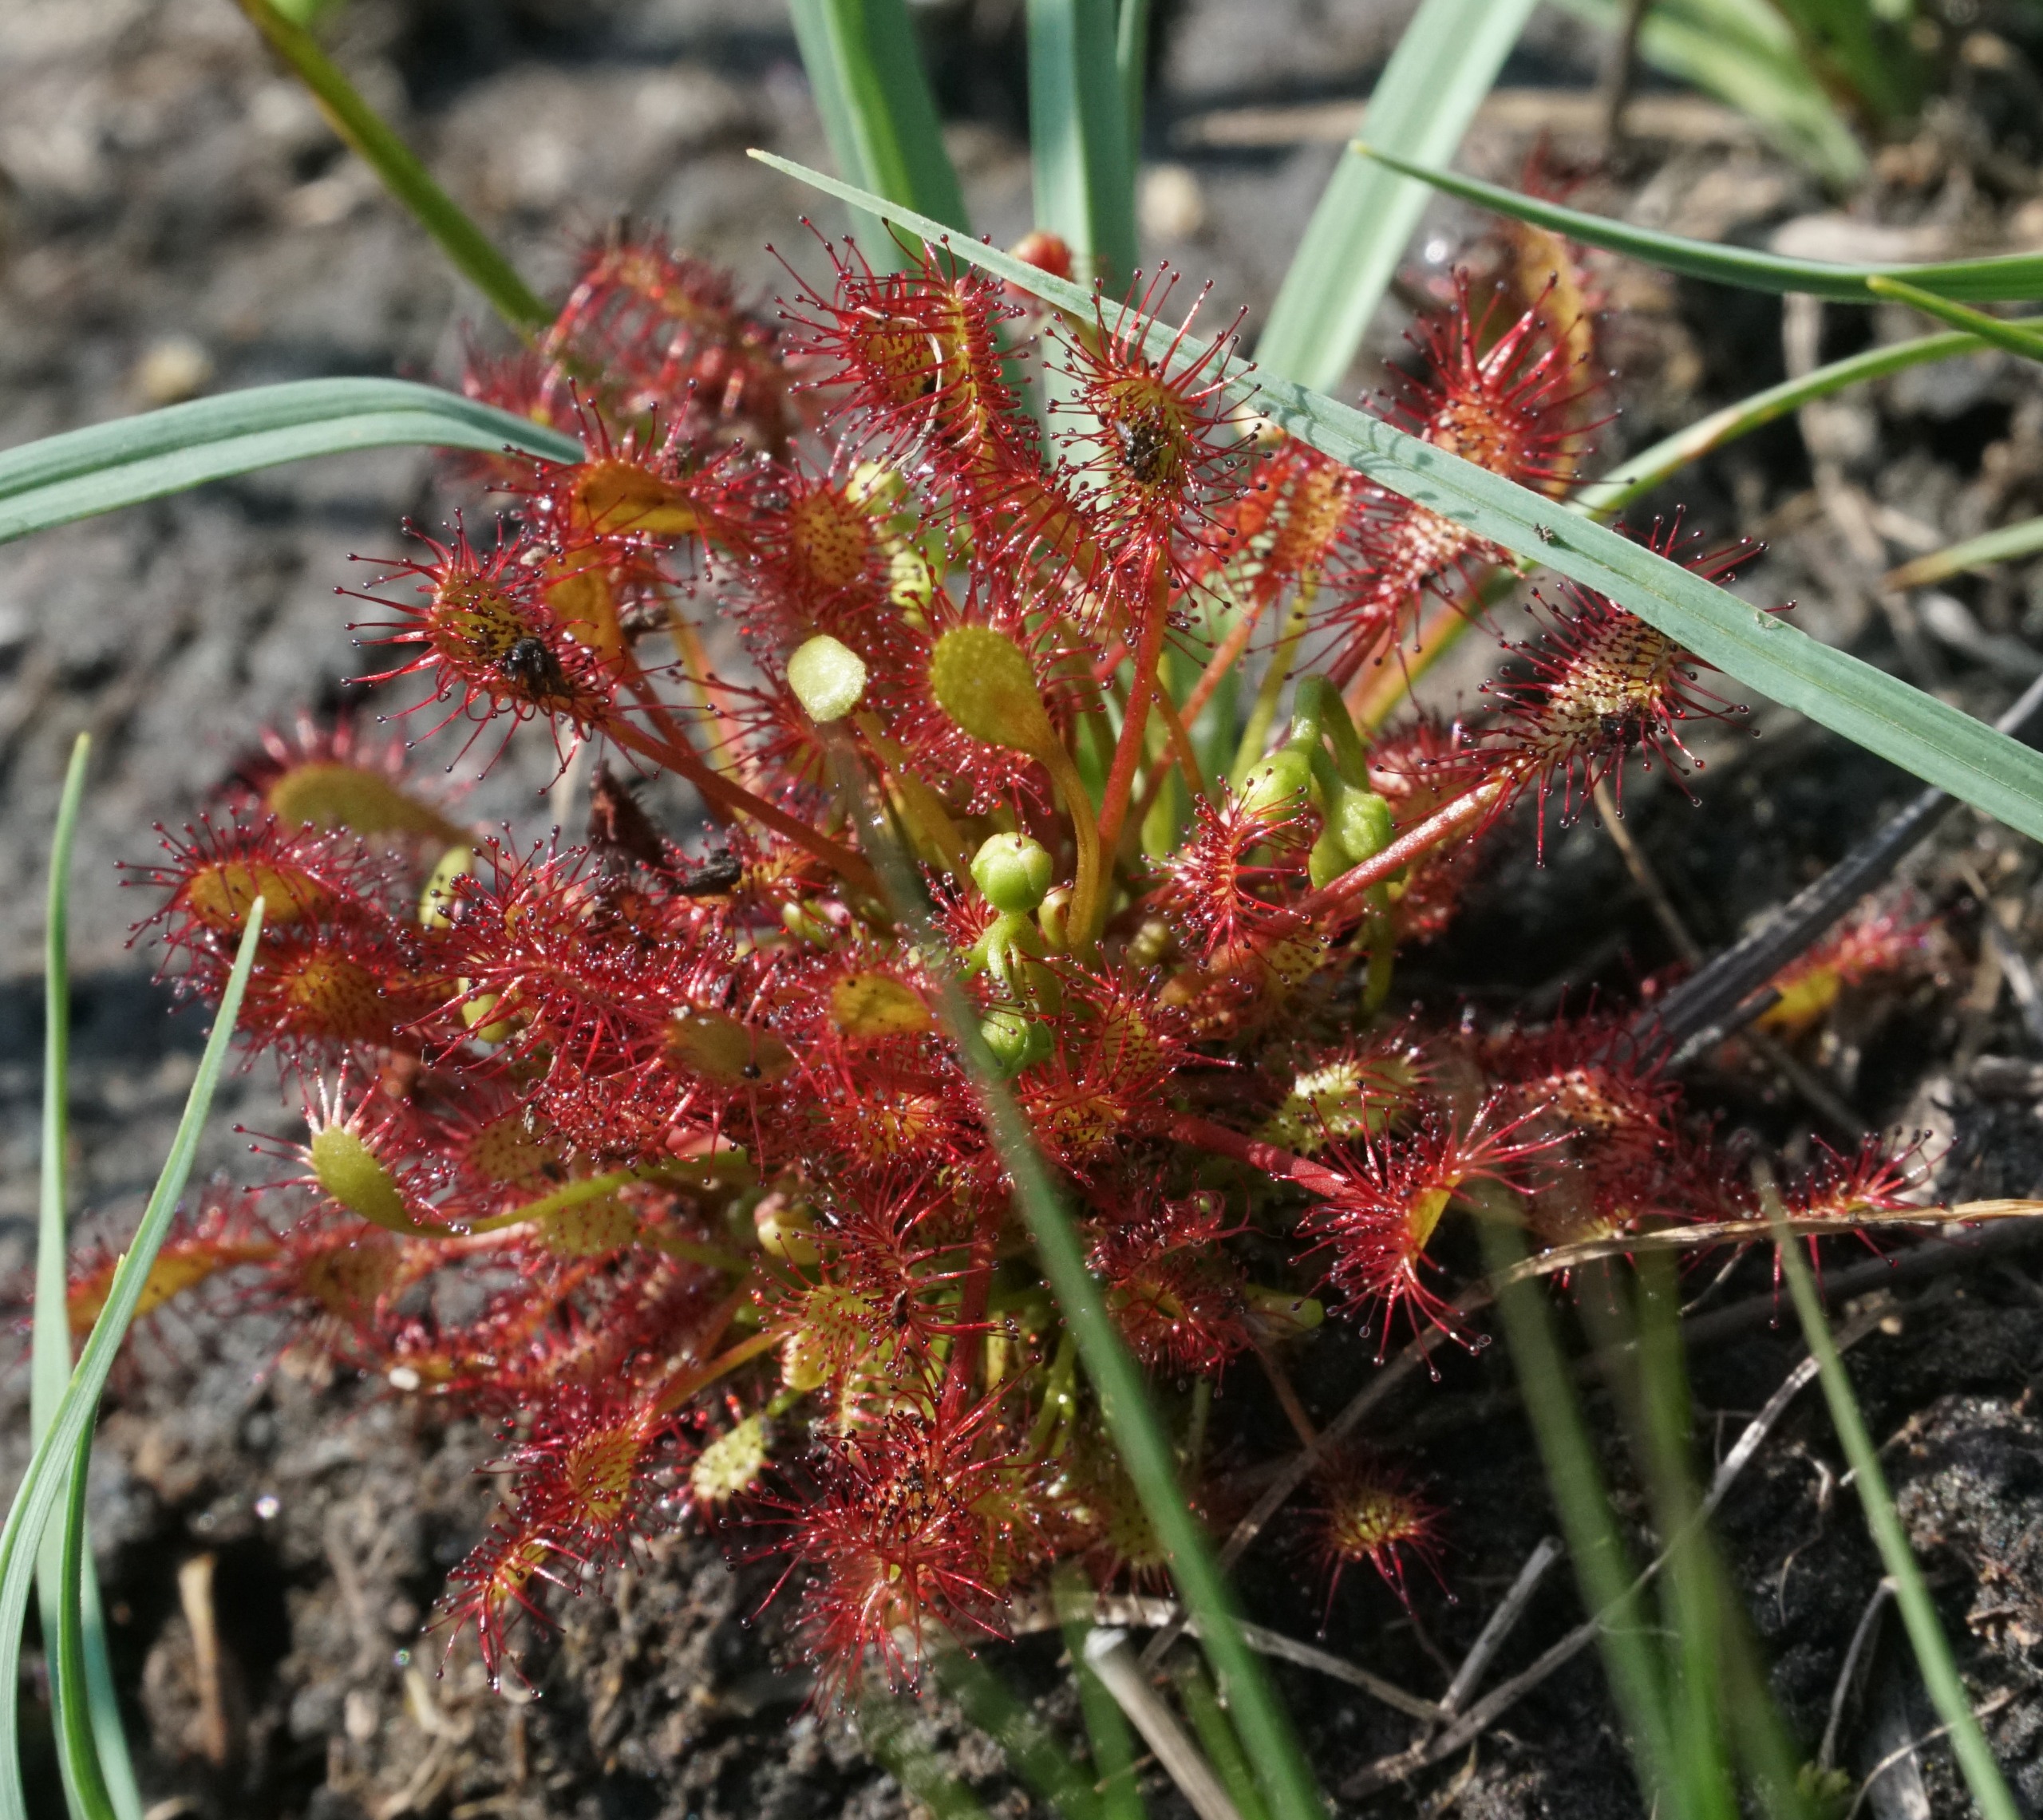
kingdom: Plantae
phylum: Tracheophyta
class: Magnoliopsida
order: Caryophyllales
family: Droseraceae
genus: Drosera
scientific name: Drosera intermedia
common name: Liden soldug
